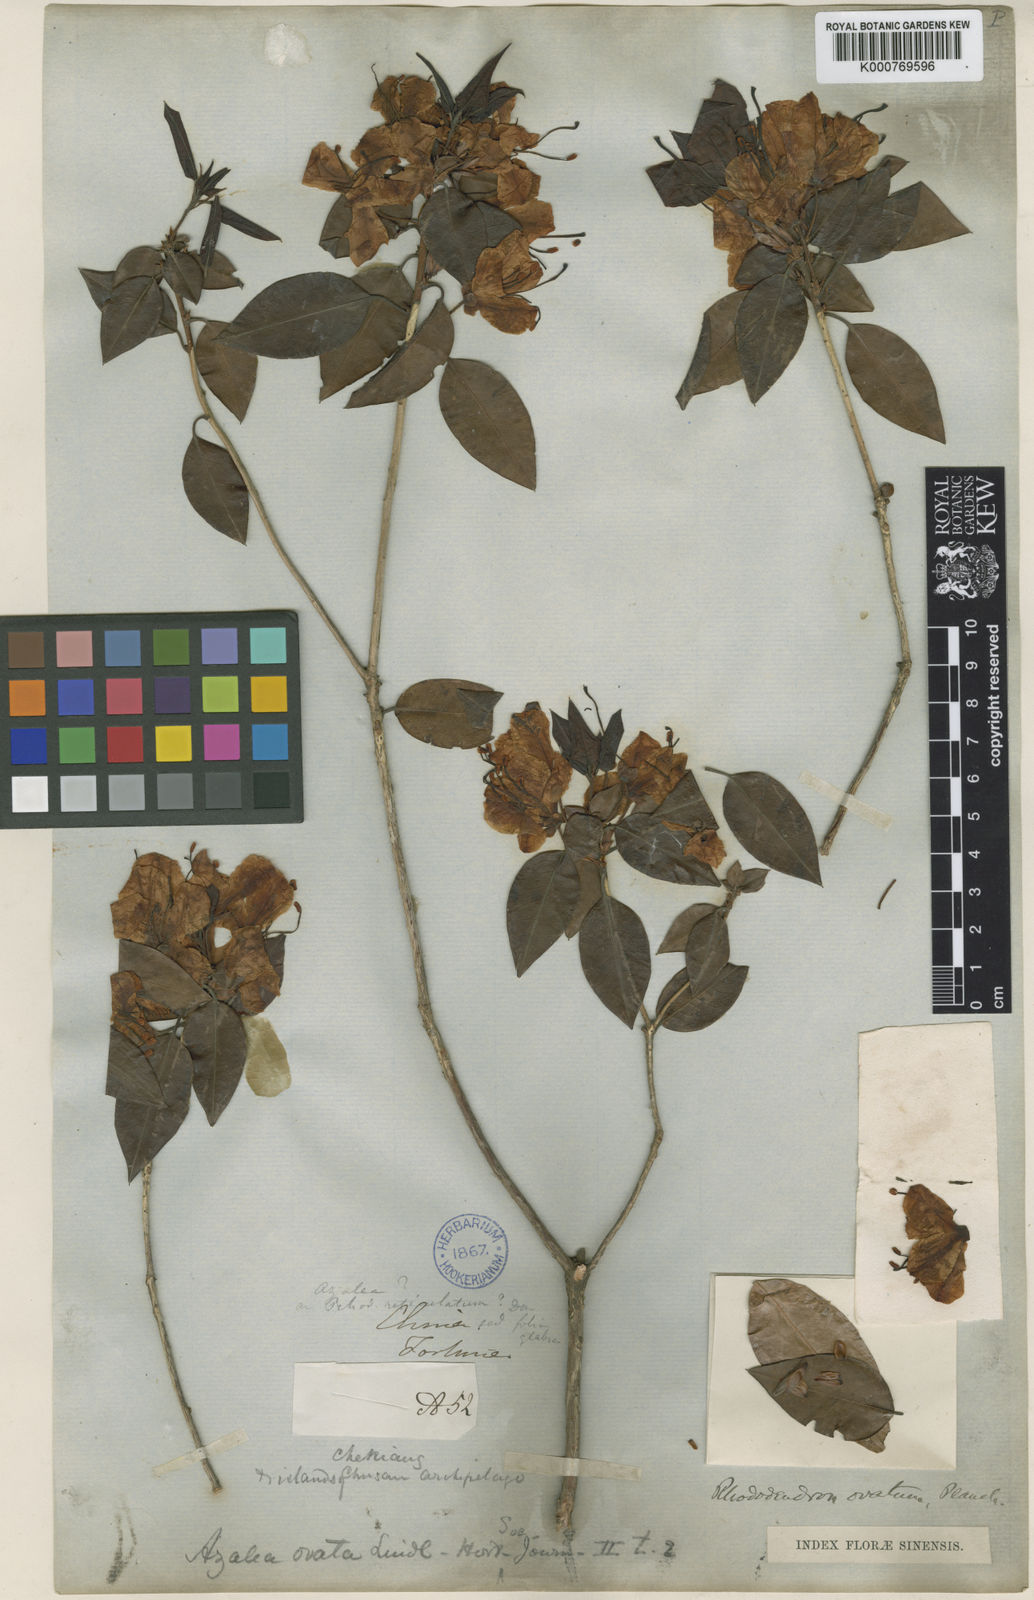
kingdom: Plantae
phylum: Tracheophyta
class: Magnoliopsida
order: Ericales
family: Ericaceae
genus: Rhododendron
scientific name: Rhododendron ovatum
